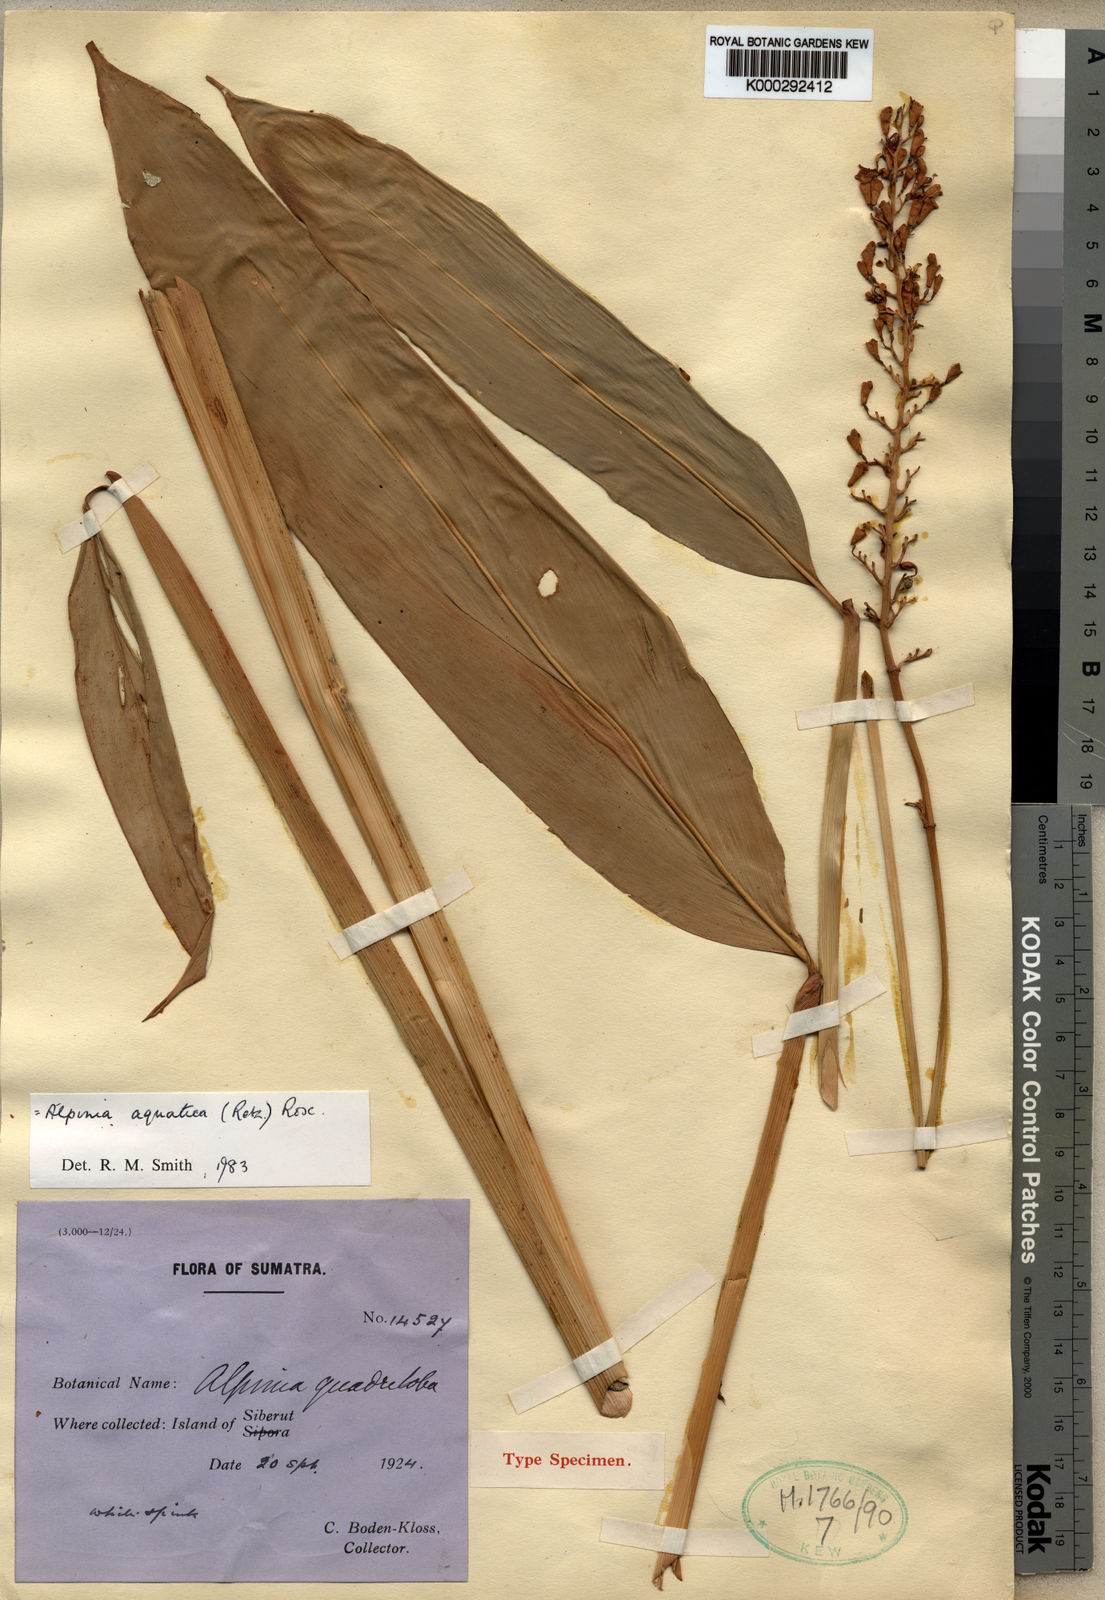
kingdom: Plantae
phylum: Tracheophyta
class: Liliopsida
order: Zingiberales
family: Zingiberaceae
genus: Alpinia
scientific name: Alpinia aquatica
